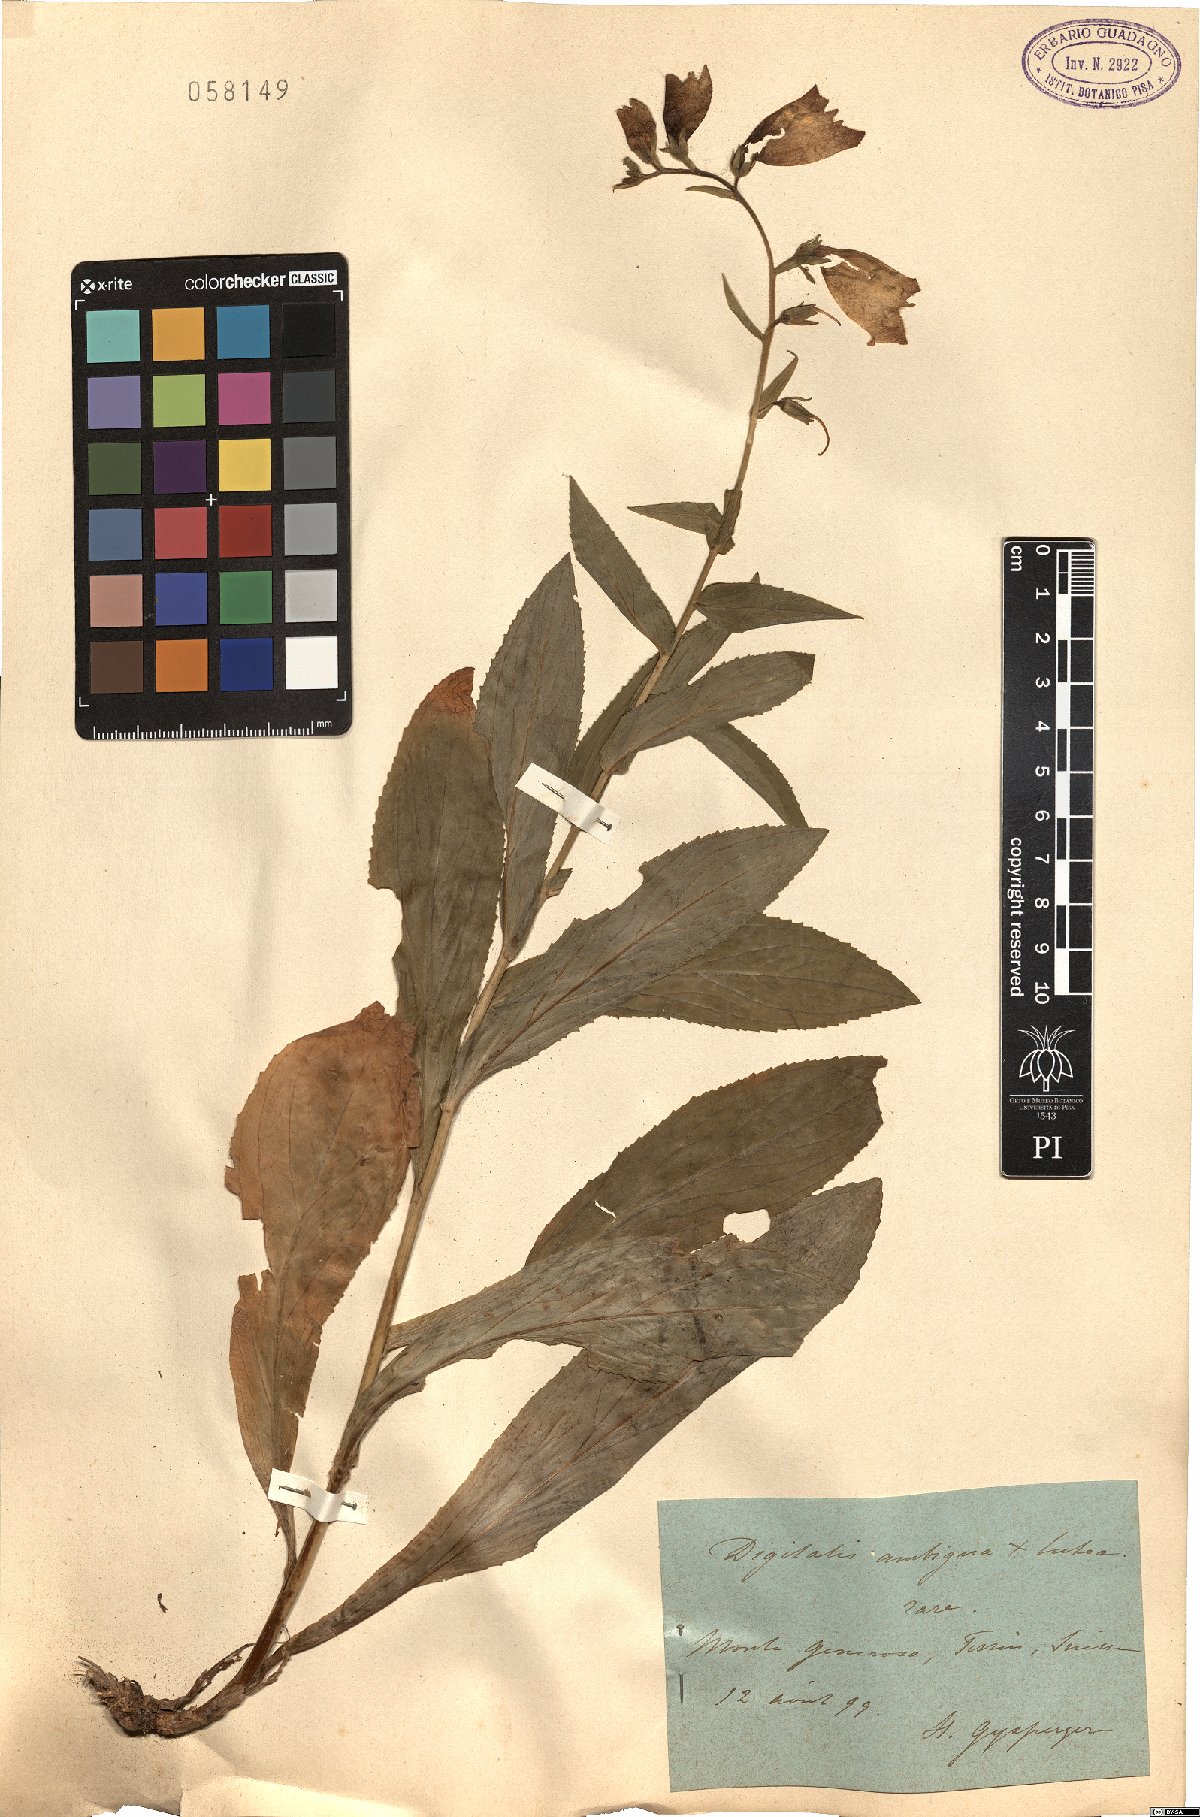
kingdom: Plantae
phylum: Tracheophyta
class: Magnoliopsida
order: Lamiales
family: Plantaginaceae
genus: Digitalis
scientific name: Digitalis
